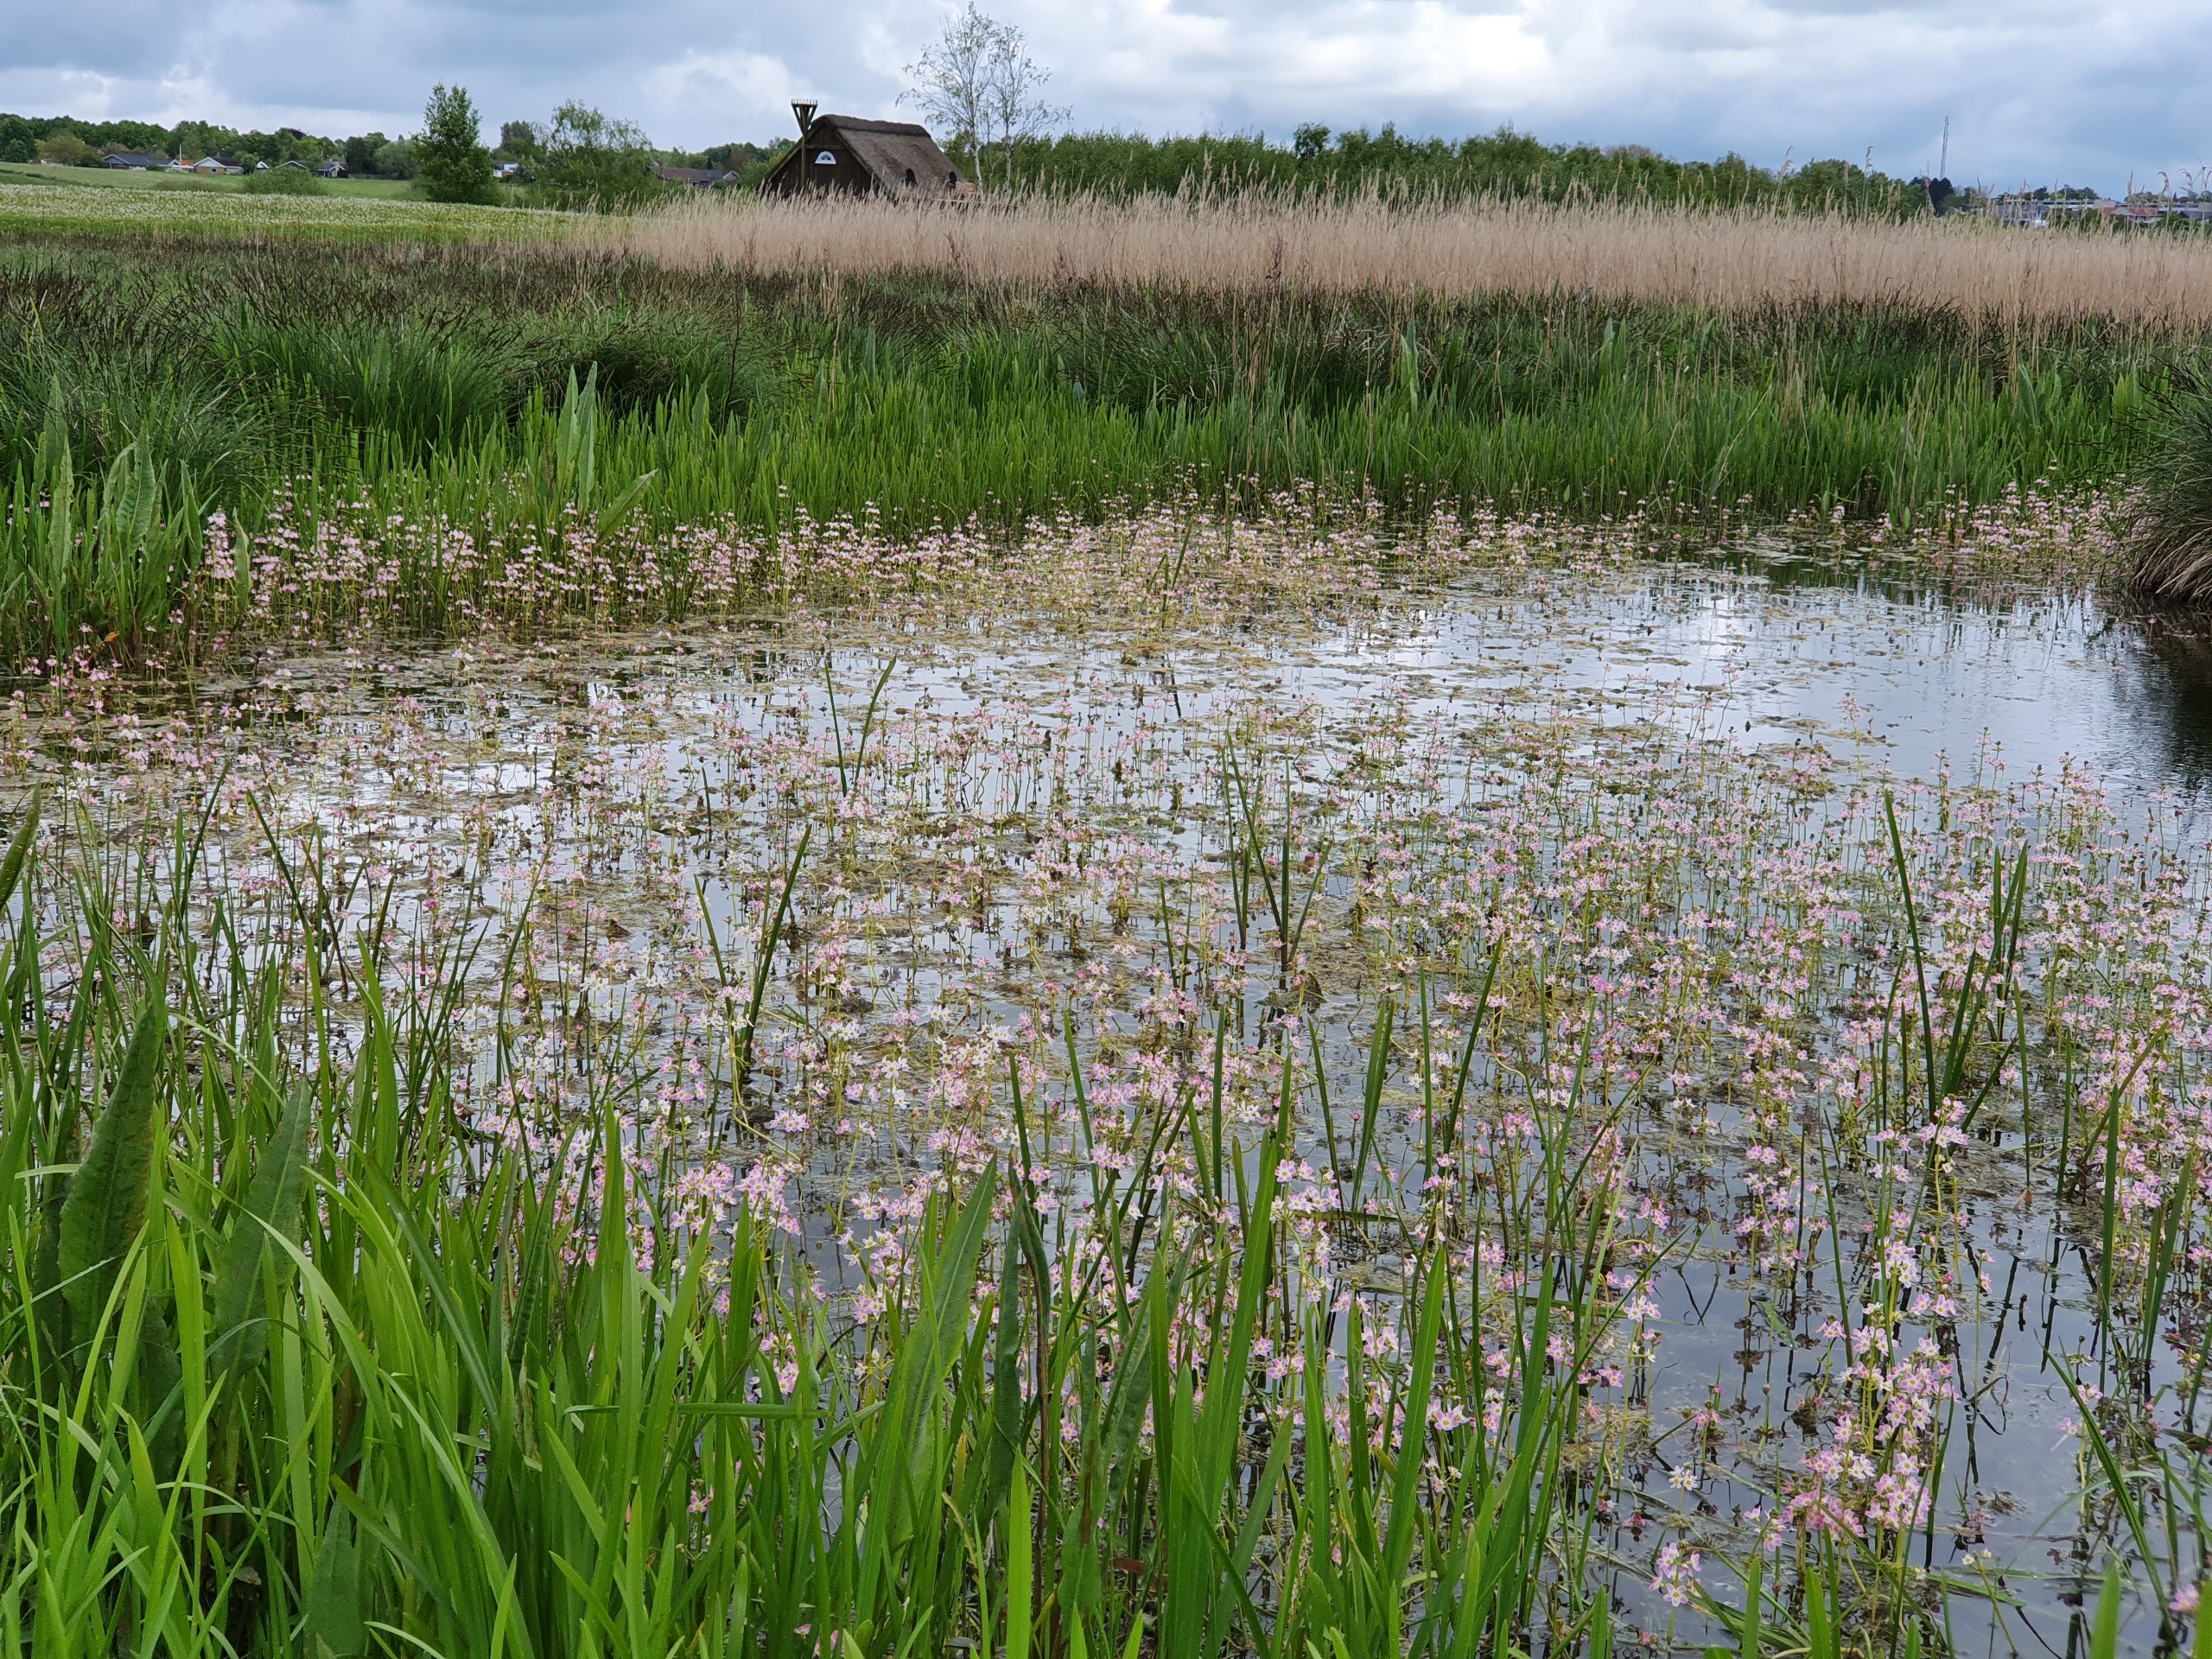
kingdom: Plantae
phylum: Tracheophyta
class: Magnoliopsida
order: Ericales
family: Primulaceae
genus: Hottonia
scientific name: Hottonia palustris
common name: Vandrøllike
